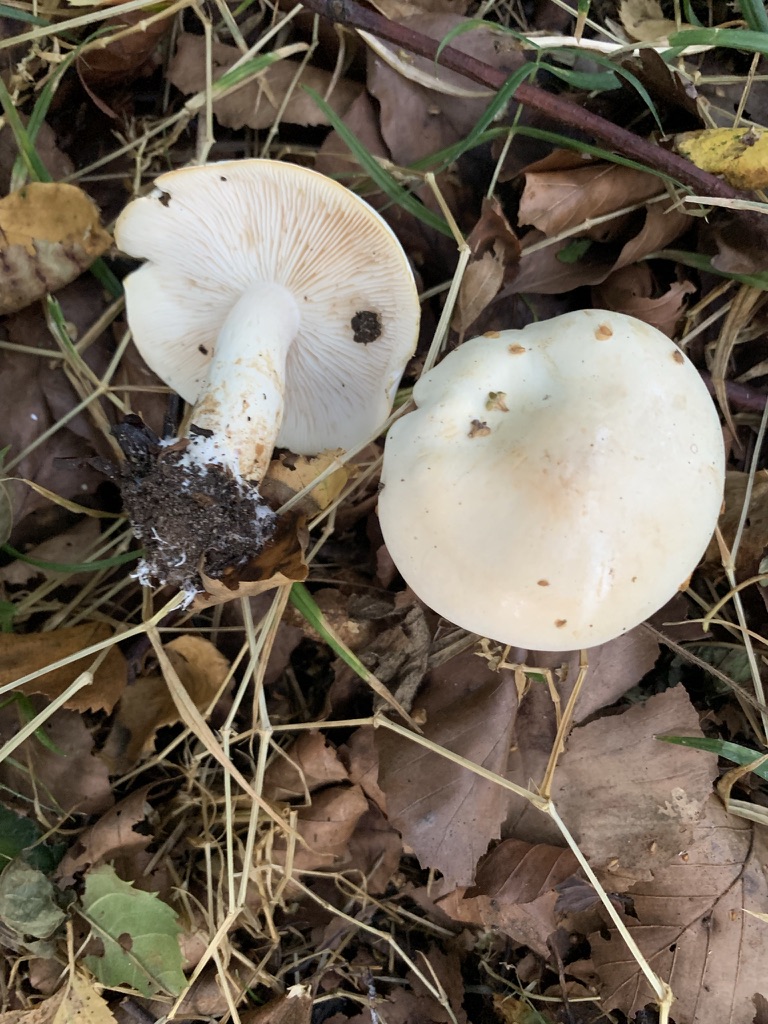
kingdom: Fungi
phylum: Basidiomycota
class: Agaricomycetes
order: Agaricales
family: Tricholomataceae
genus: Tricholoma
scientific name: Tricholoma stiparophyllum
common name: hvid ridderhat
